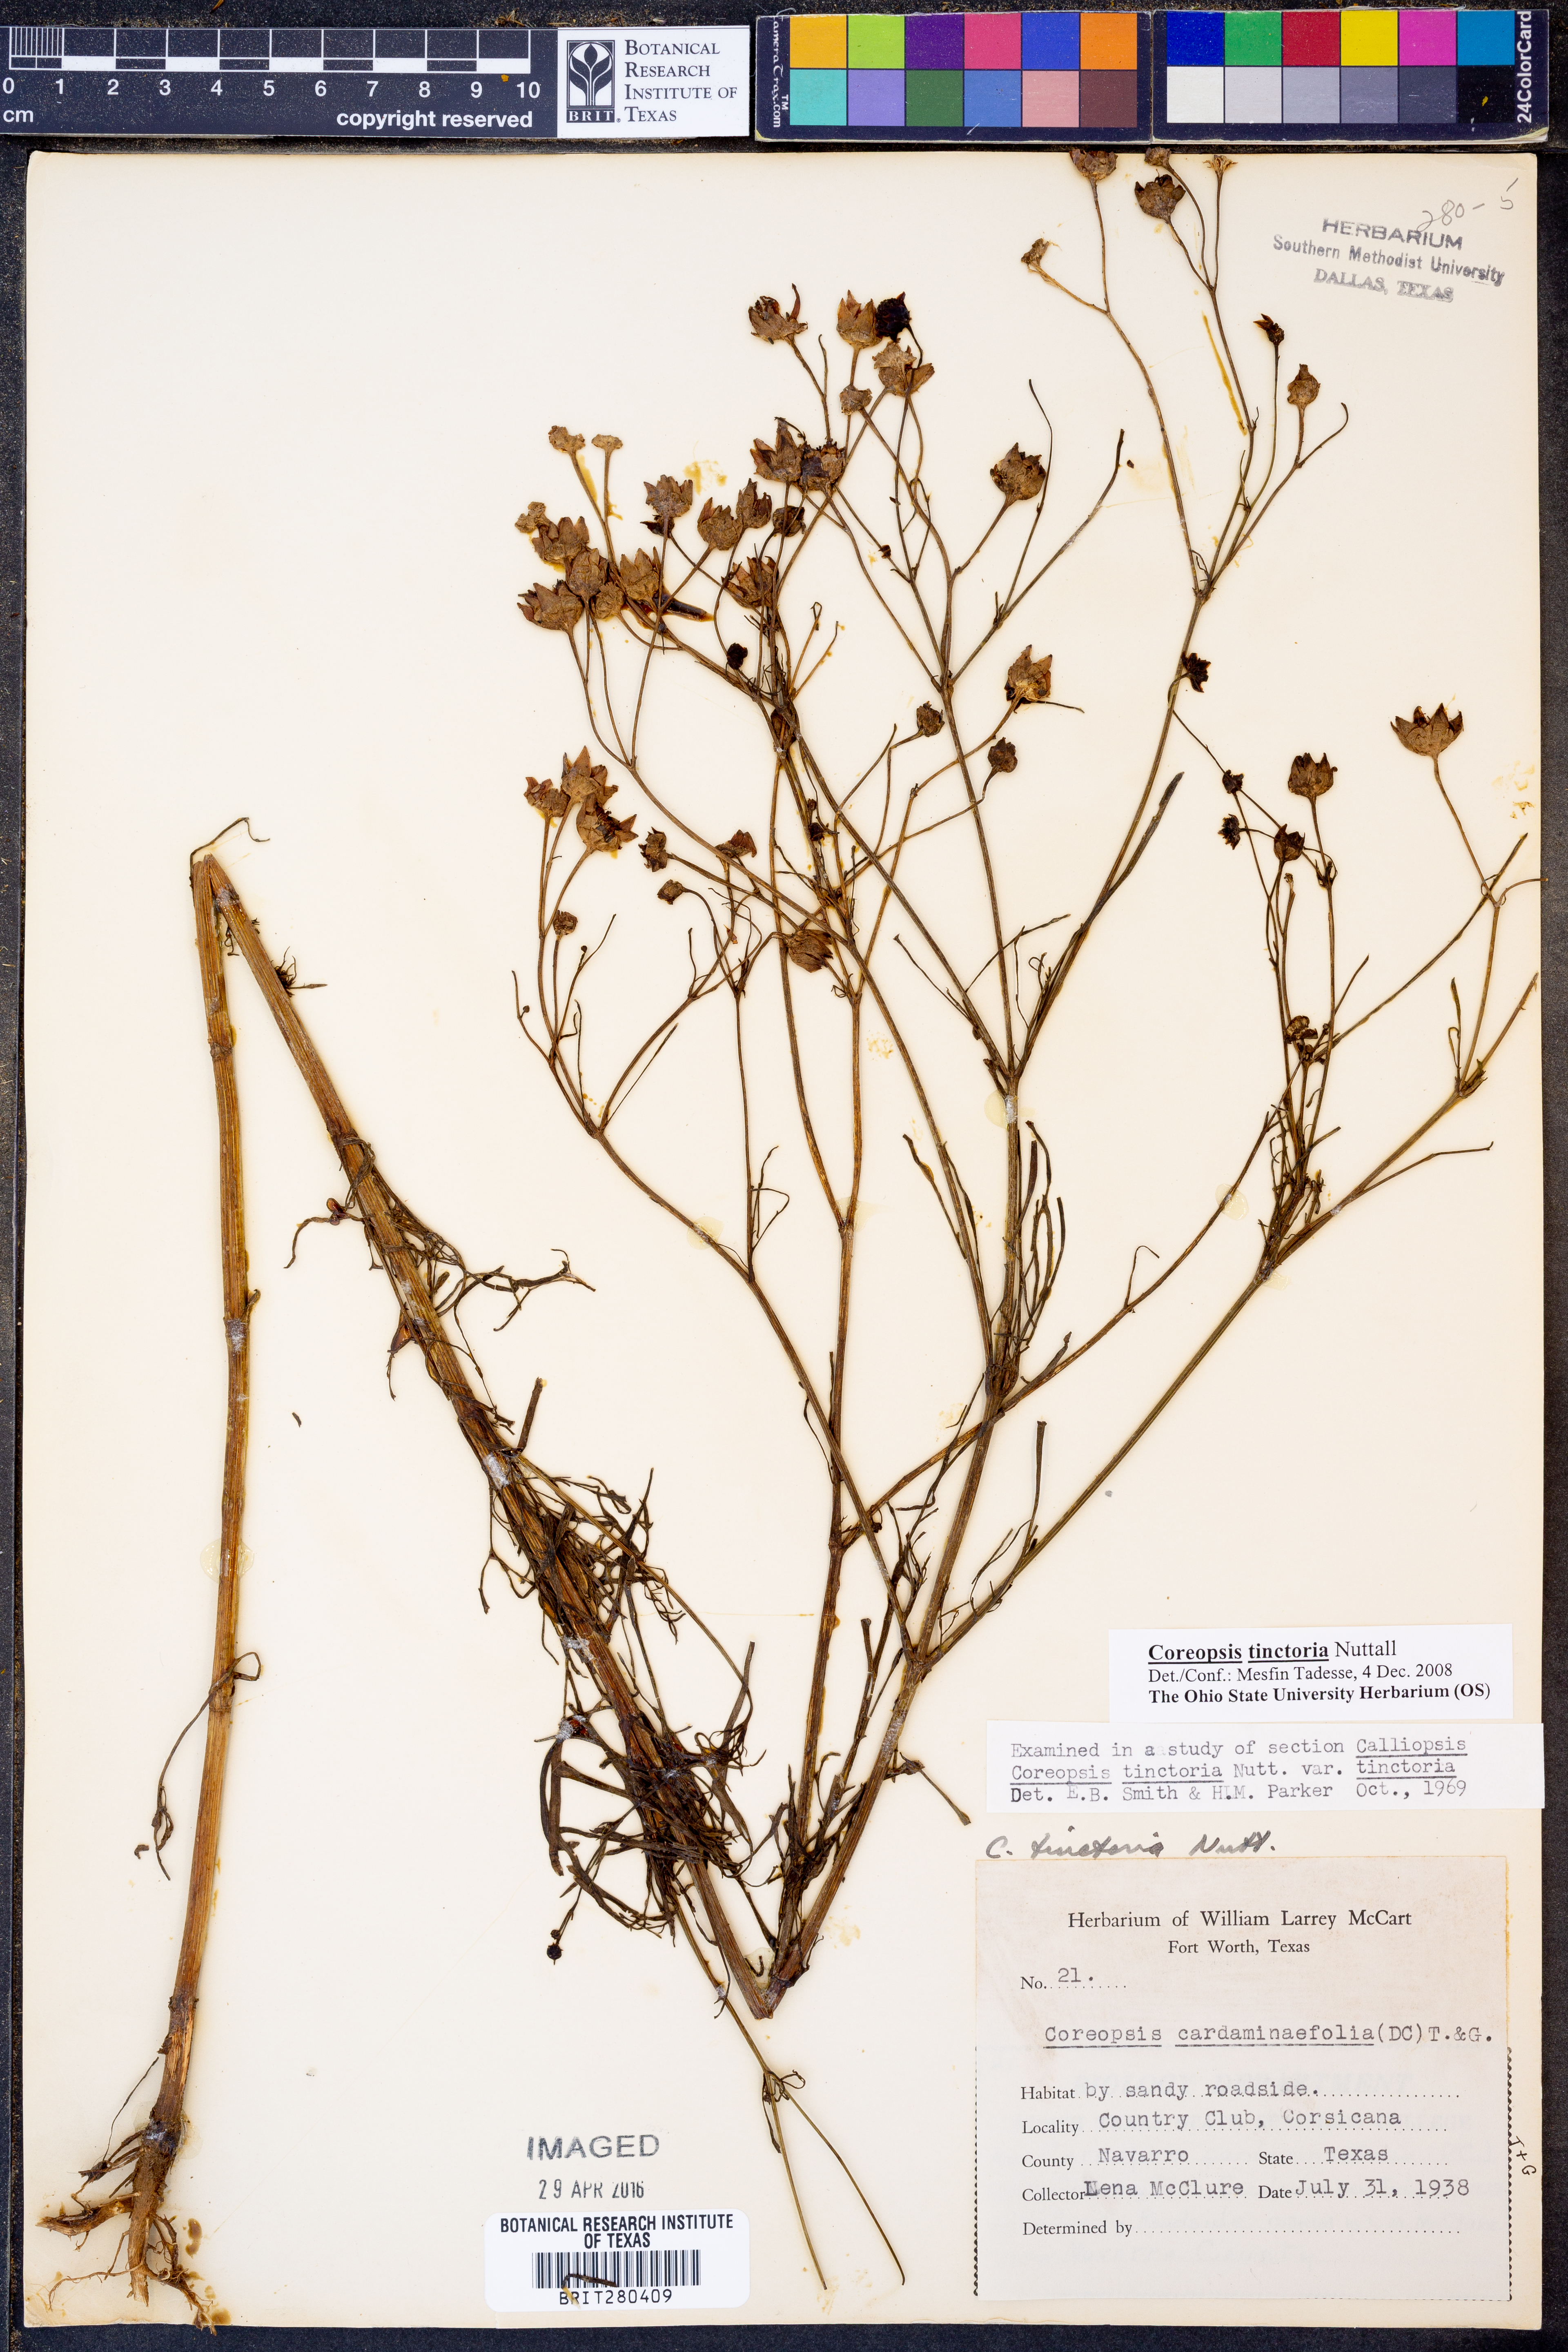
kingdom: Plantae
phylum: Tracheophyta
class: Magnoliopsida
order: Asterales
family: Asteraceae
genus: Coreopsis
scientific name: Coreopsis tinctoria
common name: Garden tickseed
